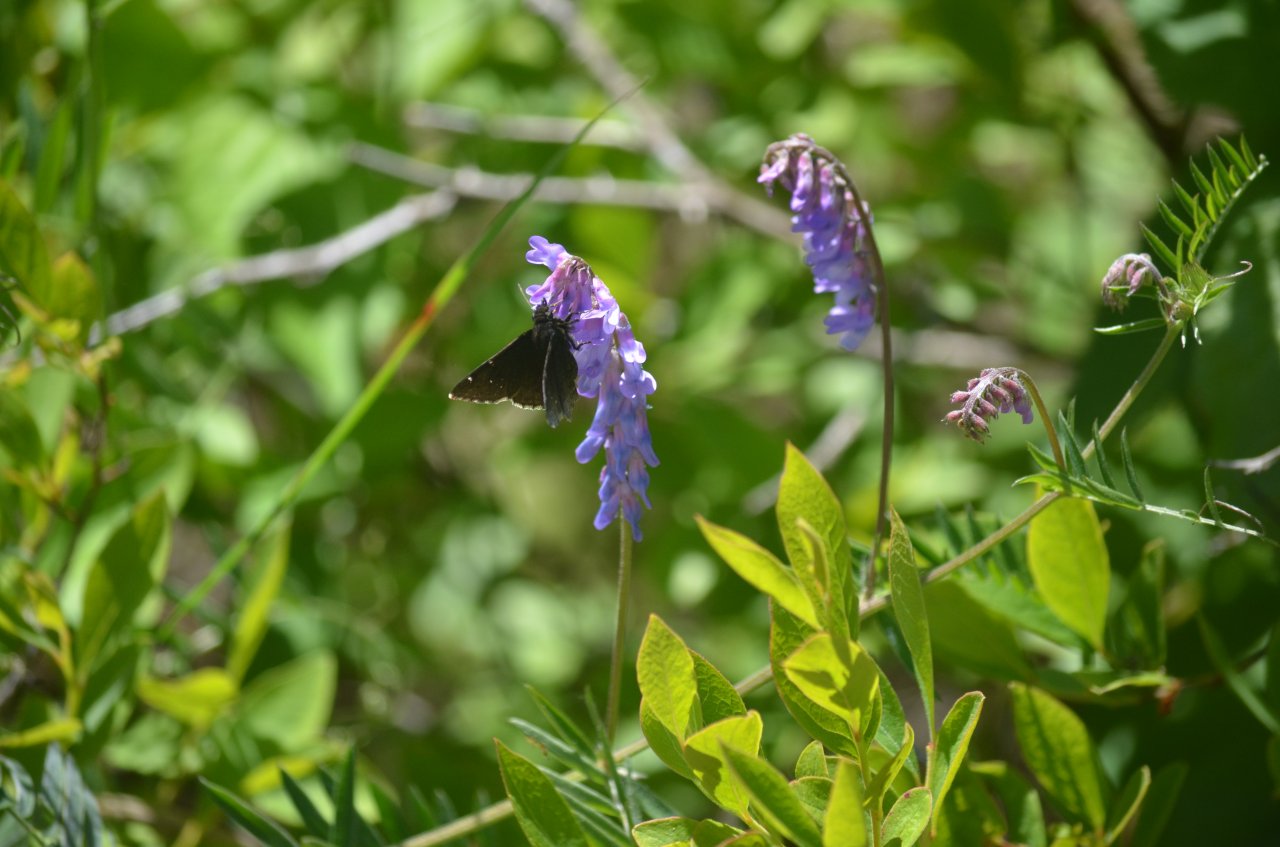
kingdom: Animalia
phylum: Arthropoda
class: Insecta
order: Lepidoptera
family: Hesperiidae
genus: Autochton
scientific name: Autochton
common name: Northern Cloudywing
